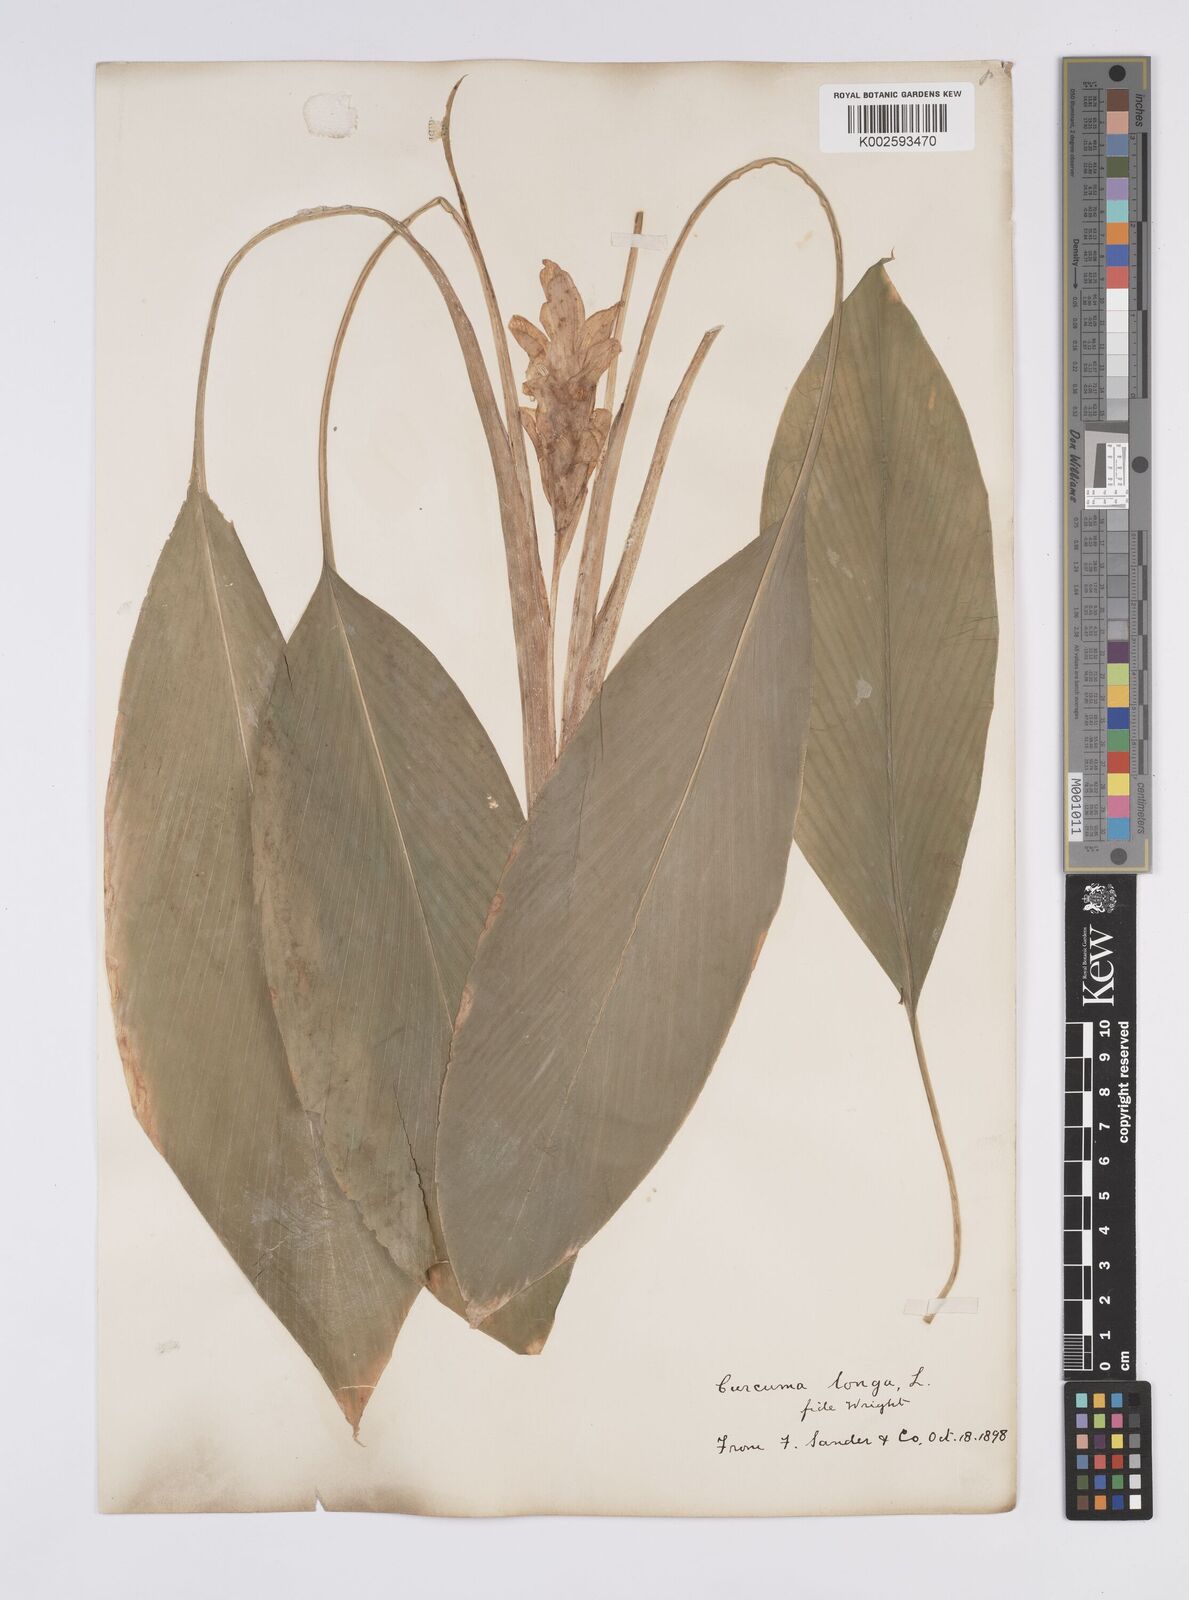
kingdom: Plantae
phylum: Tracheophyta
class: Liliopsida
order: Zingiberales
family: Zingiberaceae
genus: Curcuma
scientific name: Curcuma longa
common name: Turmeric
